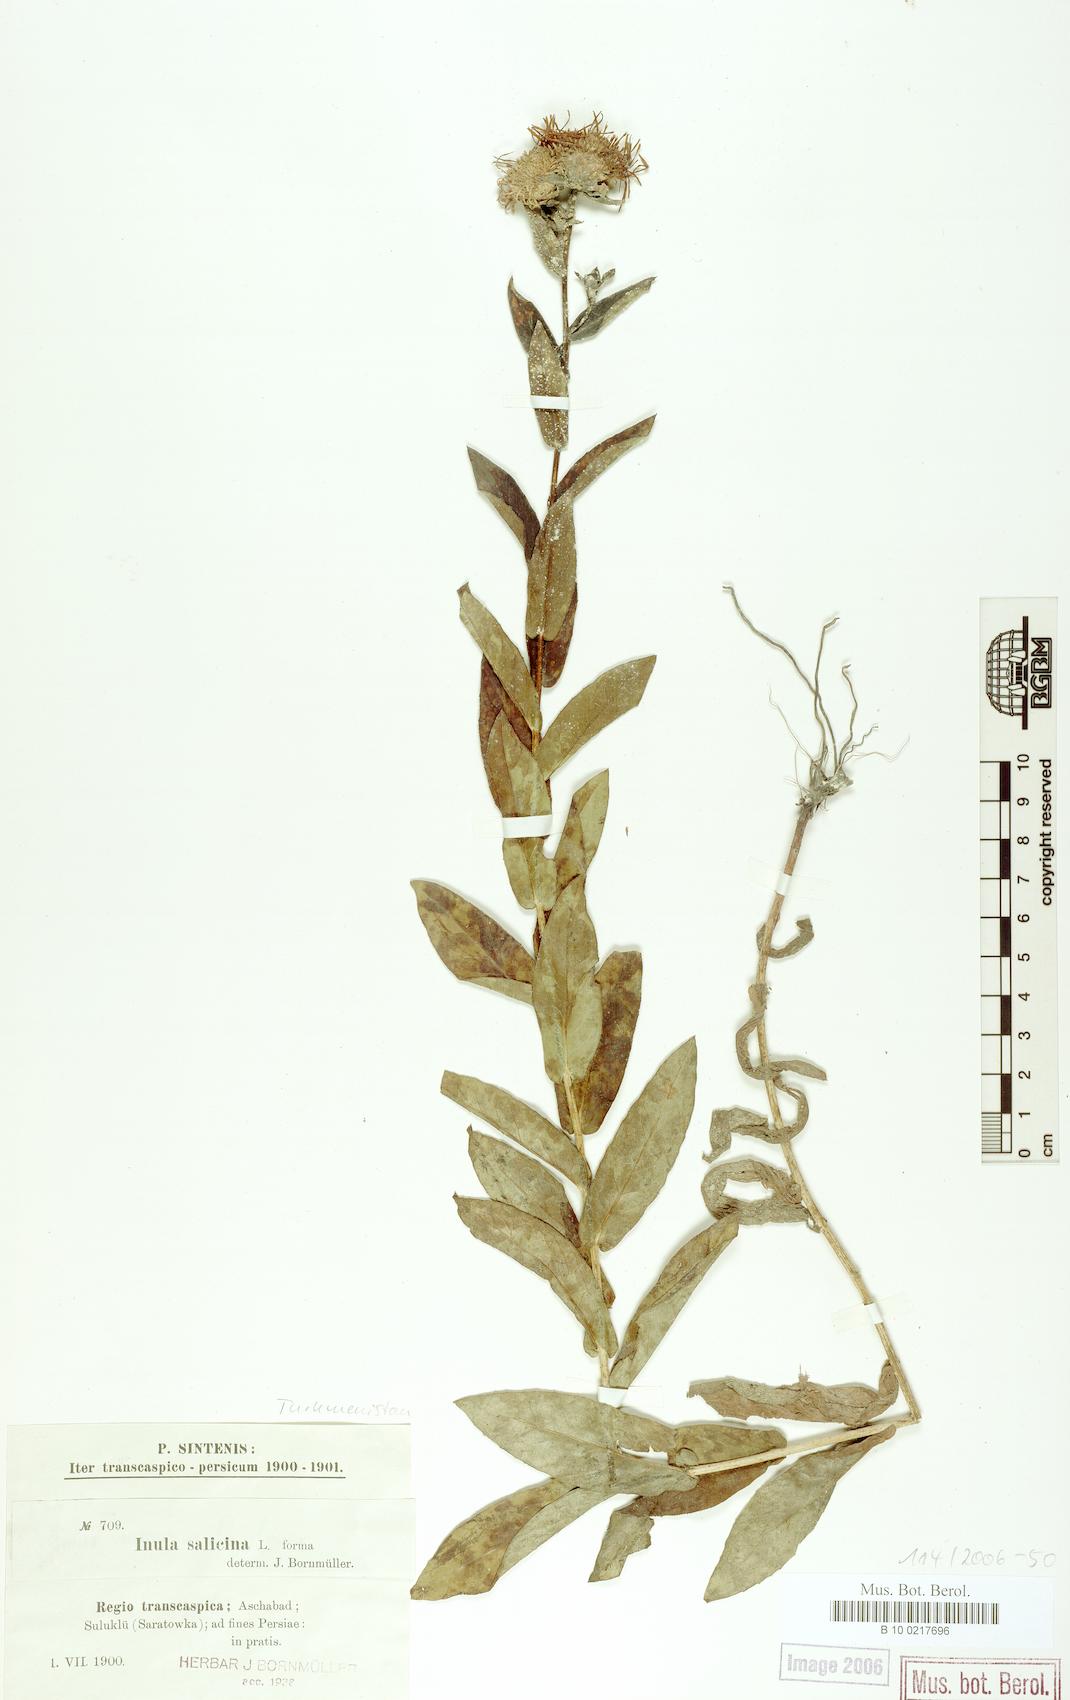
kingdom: Plantae
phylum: Tracheophyta
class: Magnoliopsida
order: Asterales
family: Asteraceae
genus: Pentanema
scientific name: Pentanema salicinum
